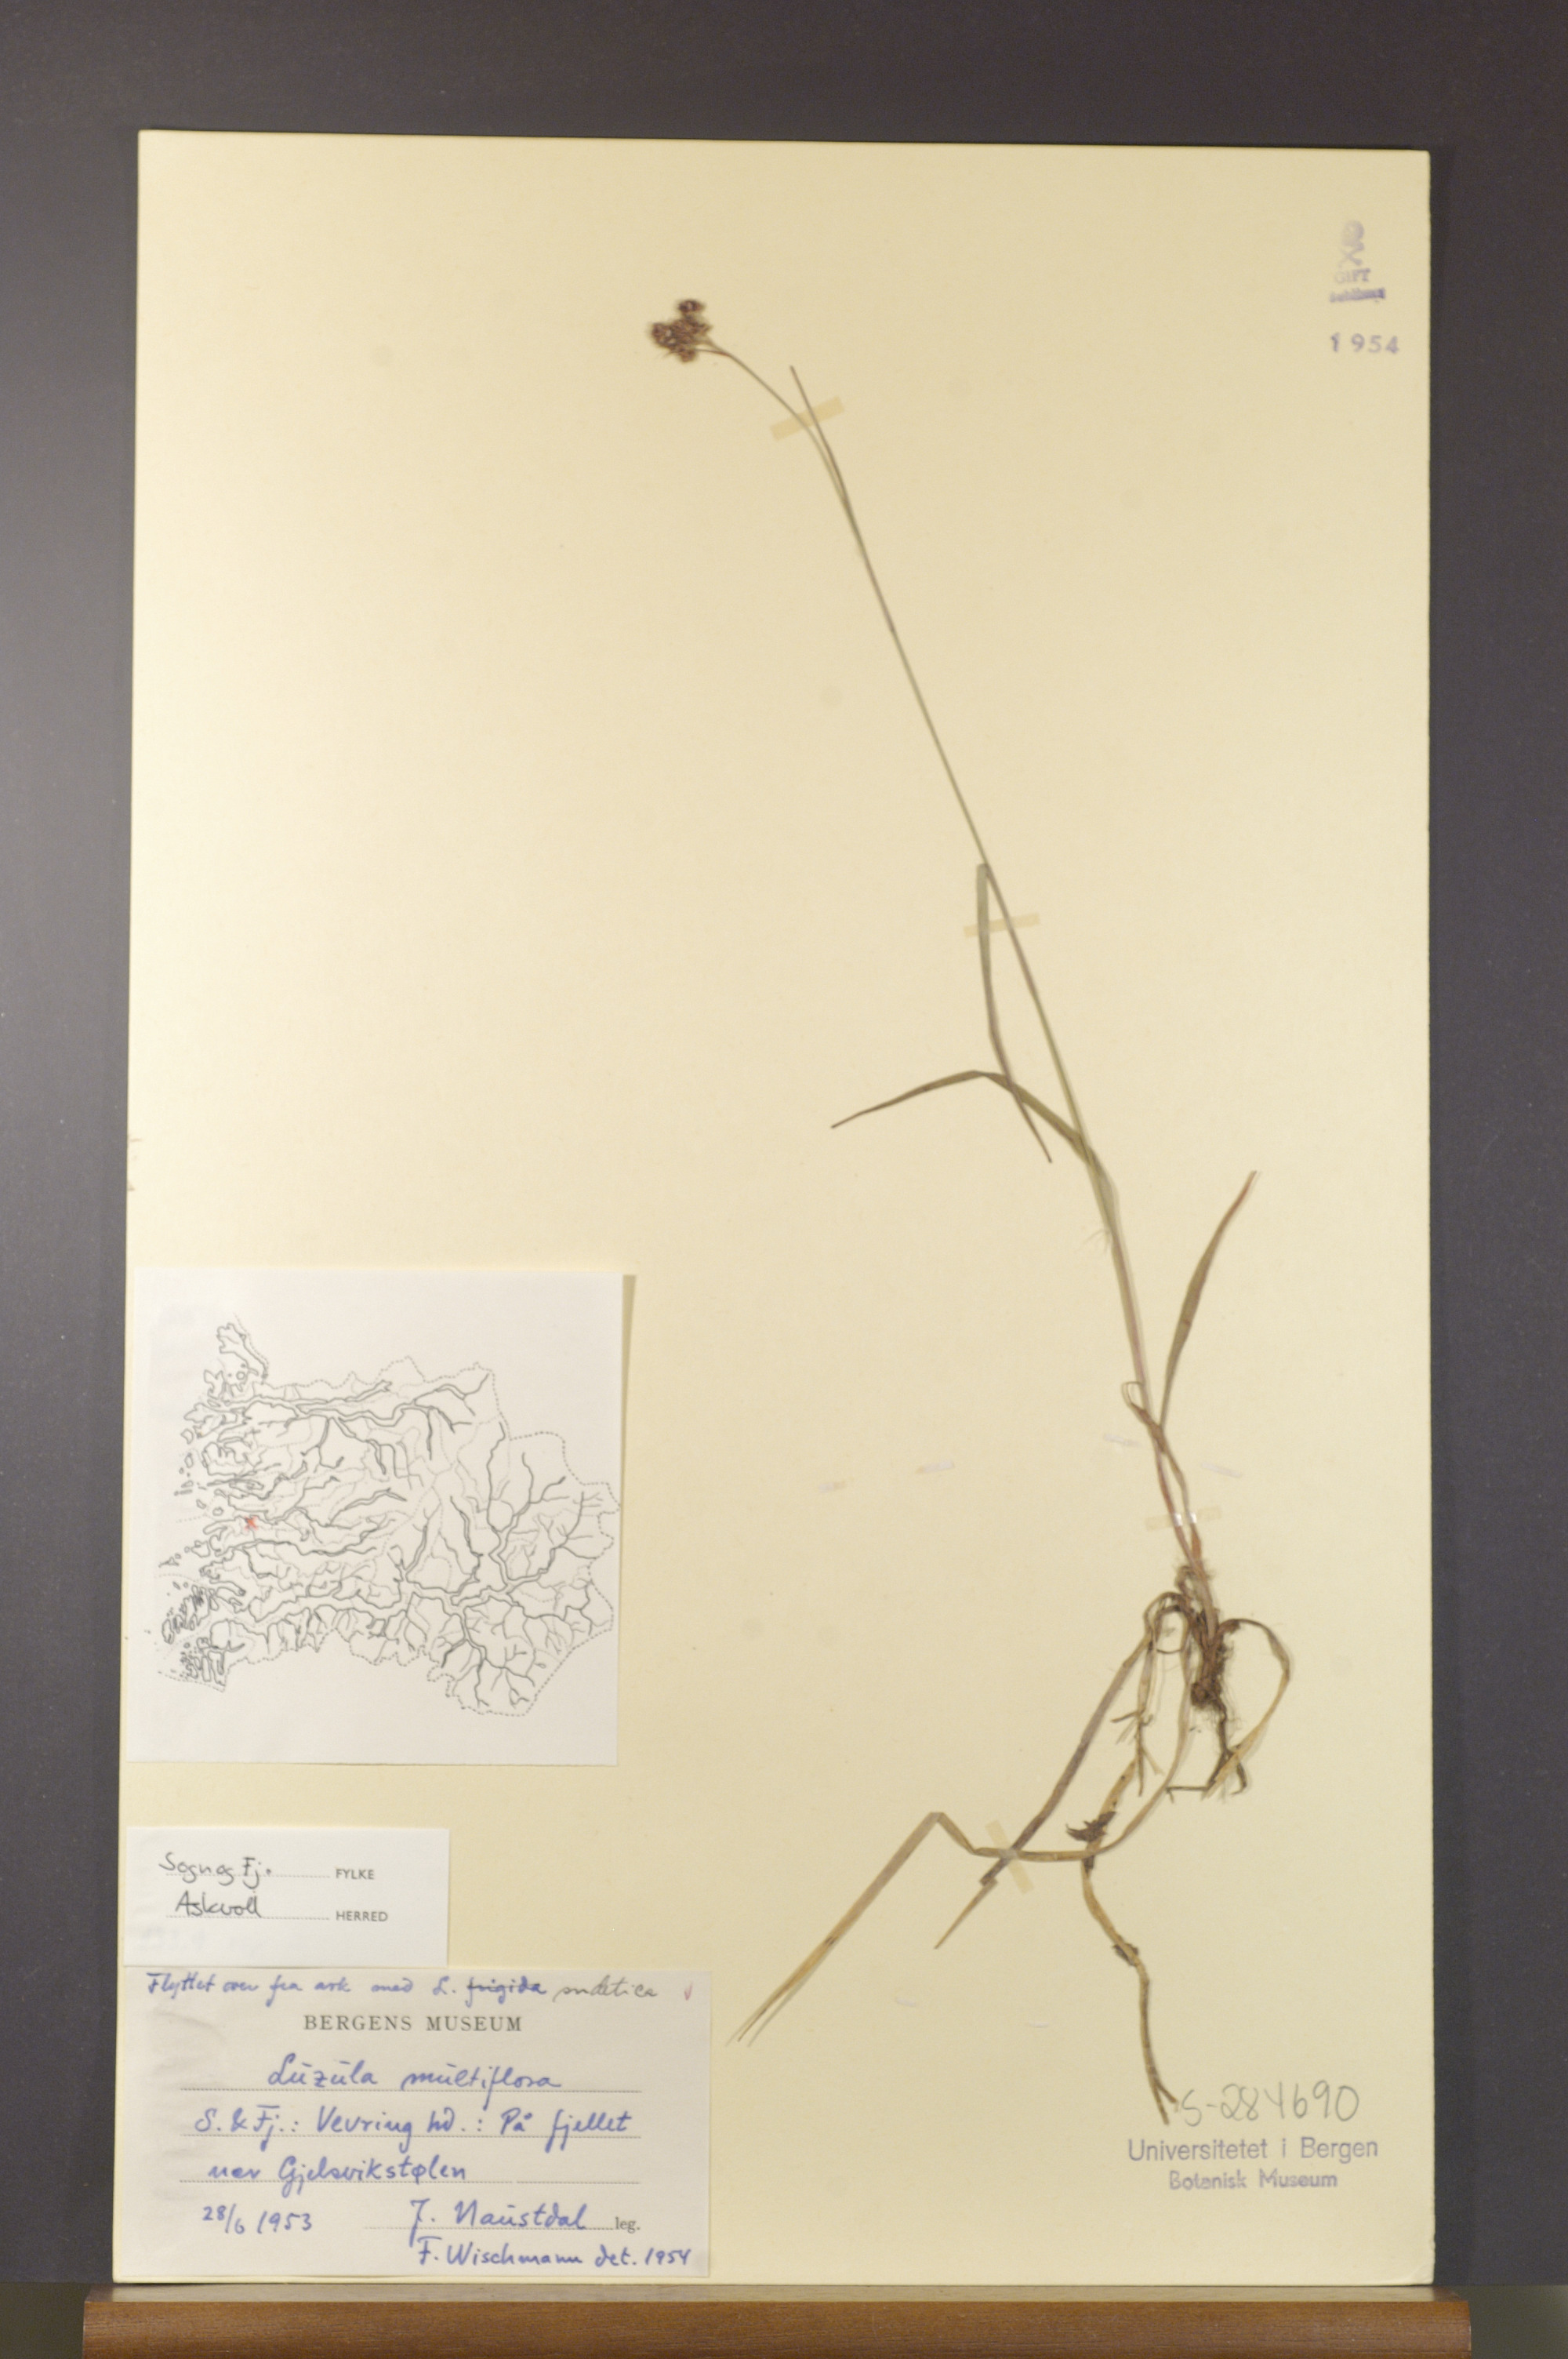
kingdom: Plantae
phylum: Tracheophyta
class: Liliopsida
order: Poales
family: Juncaceae
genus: Luzula
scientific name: Luzula multiflora
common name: Heath wood-rush
